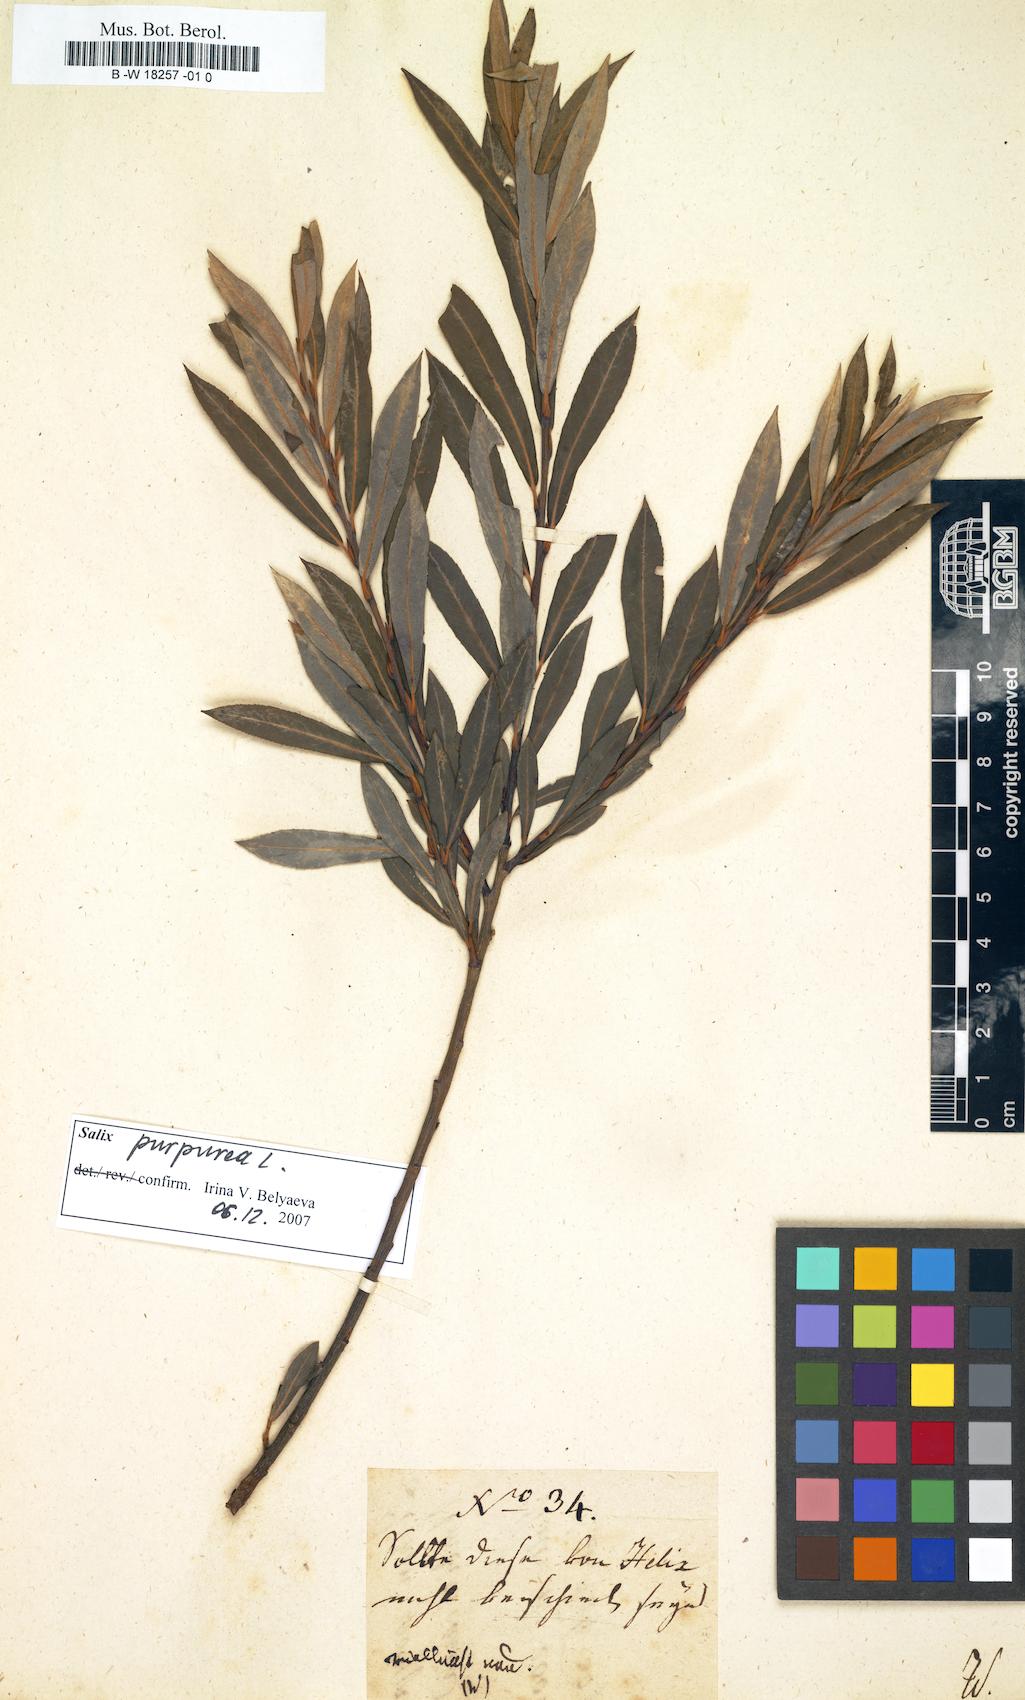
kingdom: Plantae
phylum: Tracheophyta
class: Magnoliopsida
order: Malpighiales
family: Salicaceae
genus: Salix
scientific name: Salix
